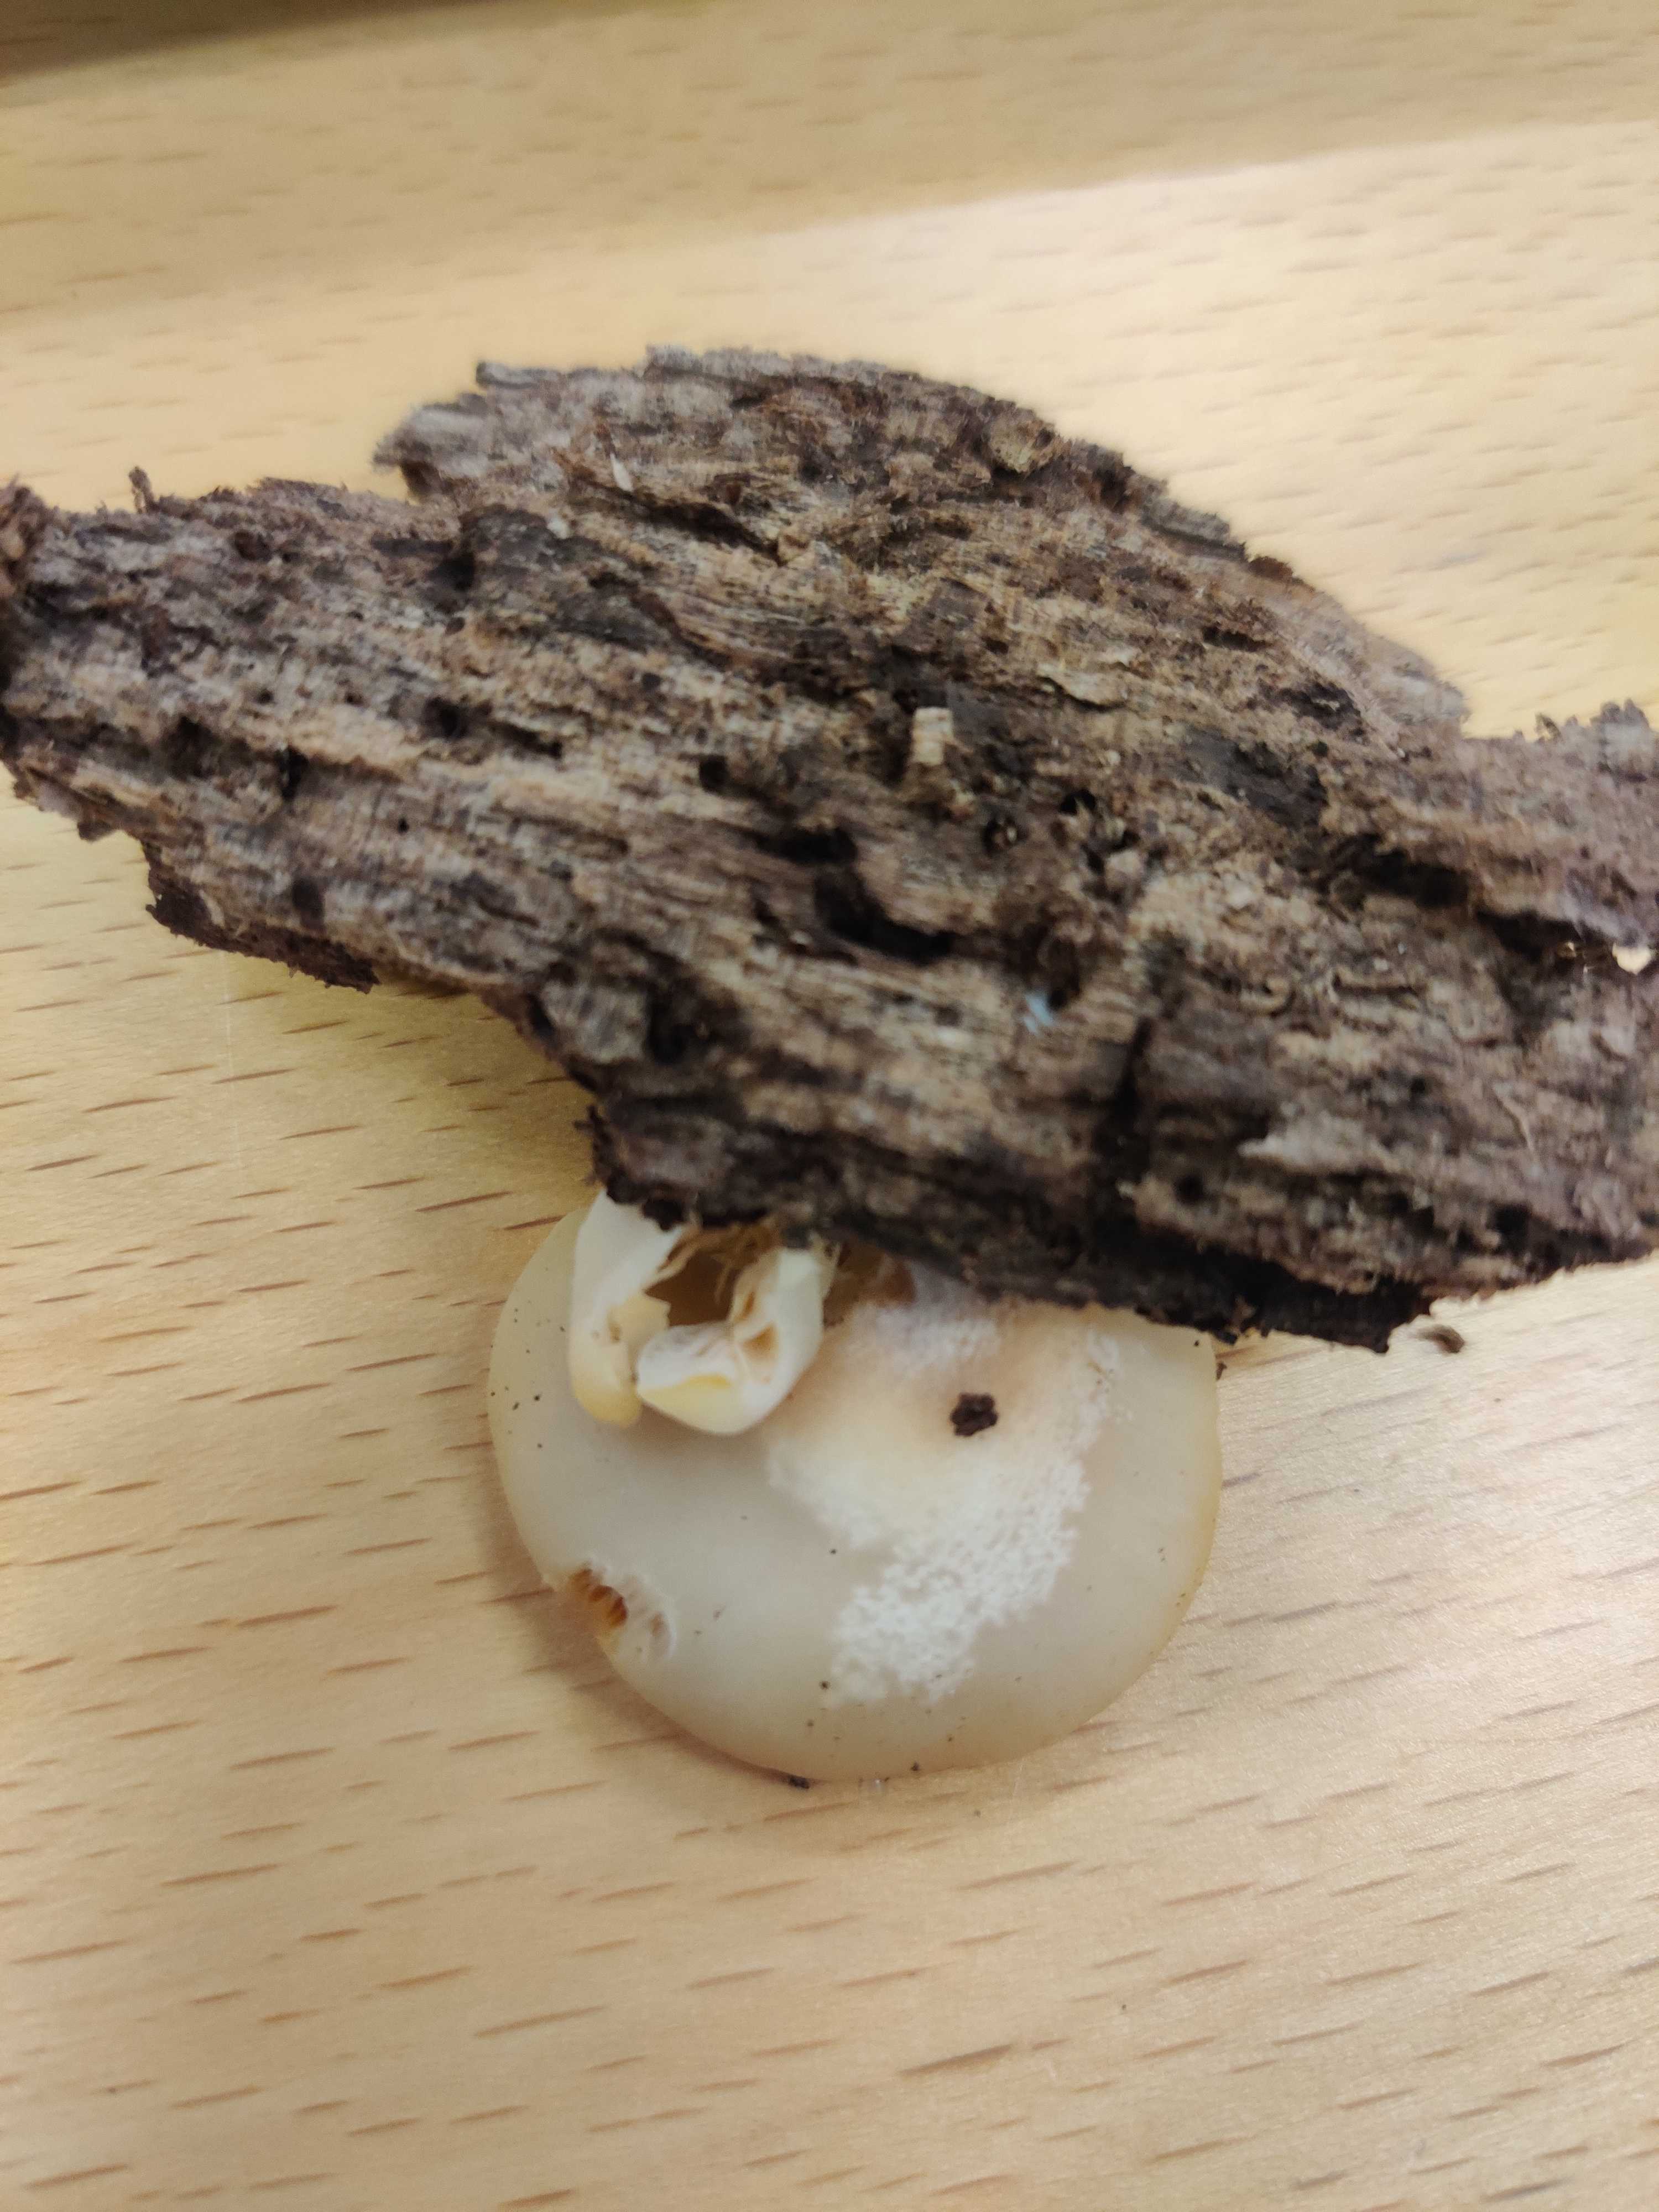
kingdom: Fungi
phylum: Basidiomycota
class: Agaricomycetes
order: Agaricales
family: Crepidotaceae
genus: Crepidotus
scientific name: Crepidotus applanatus
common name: tvefarvet muslingesvamp
